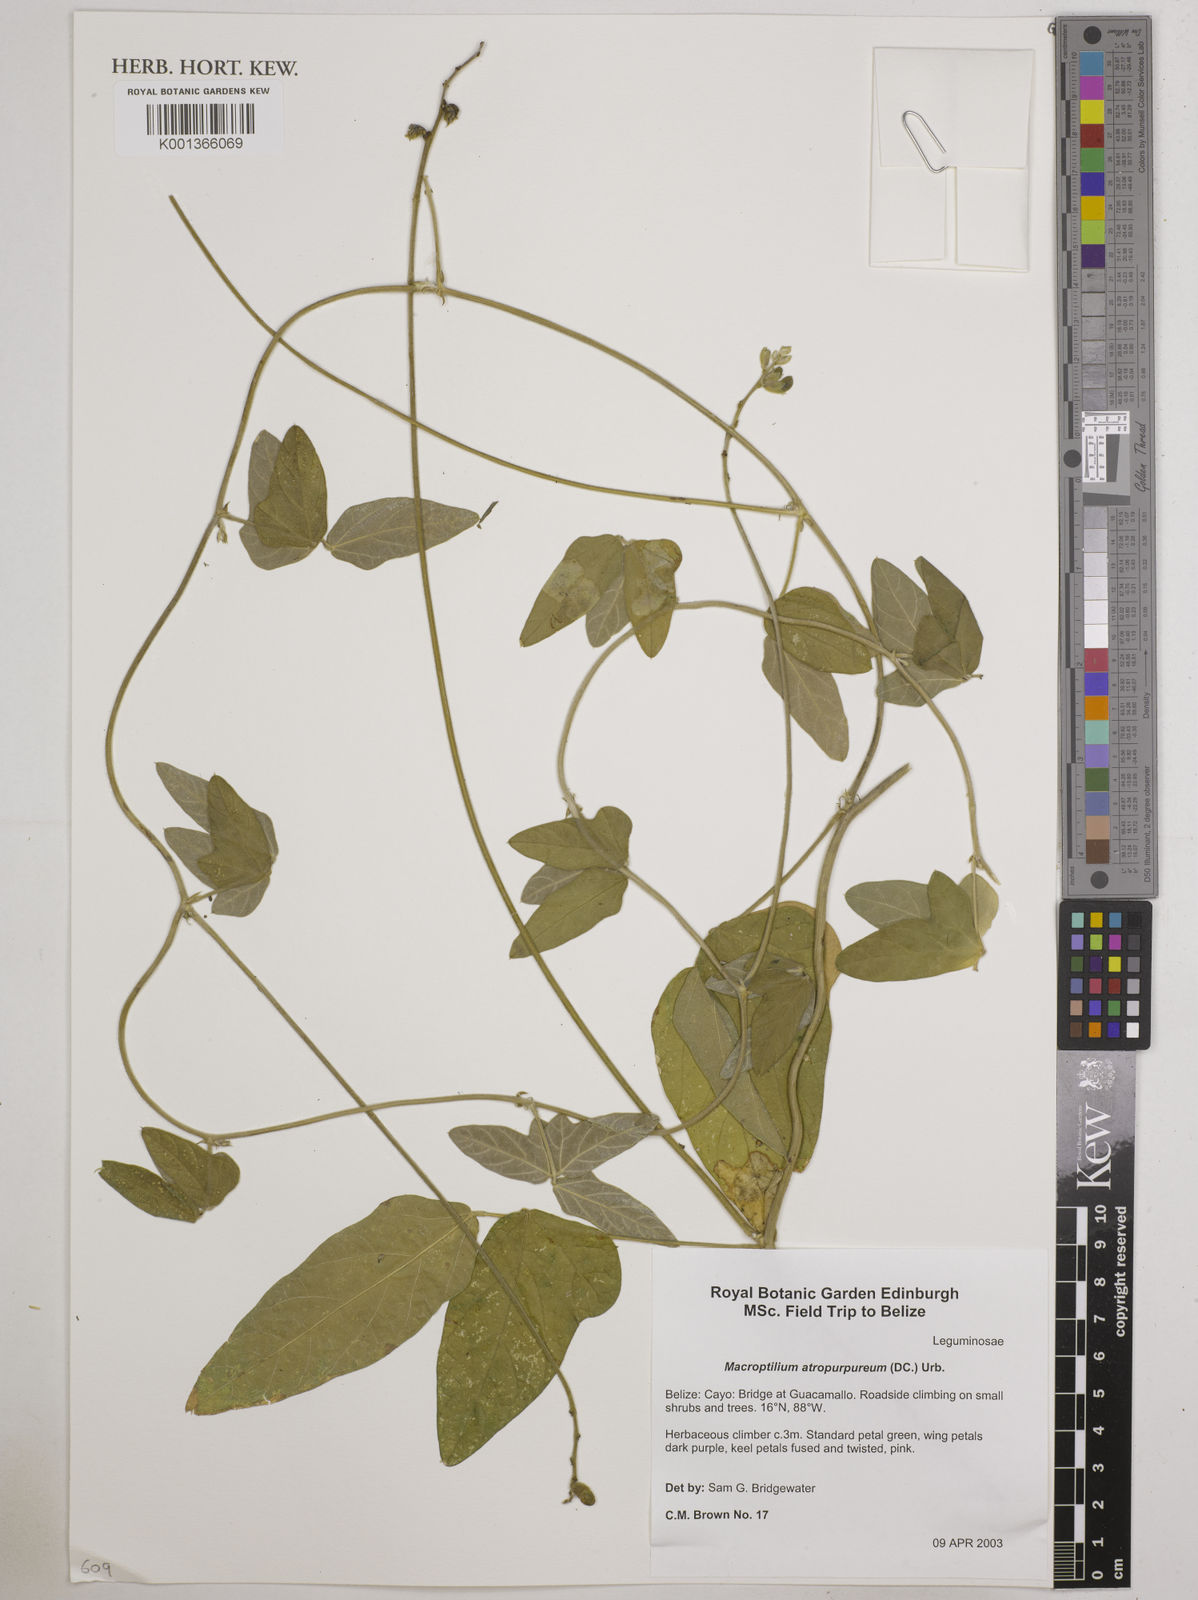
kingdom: Plantae
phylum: Tracheophyta
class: Magnoliopsida
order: Fabales
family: Fabaceae
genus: Macroptilium
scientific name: Macroptilium atropurpureum
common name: Purple bushbean
